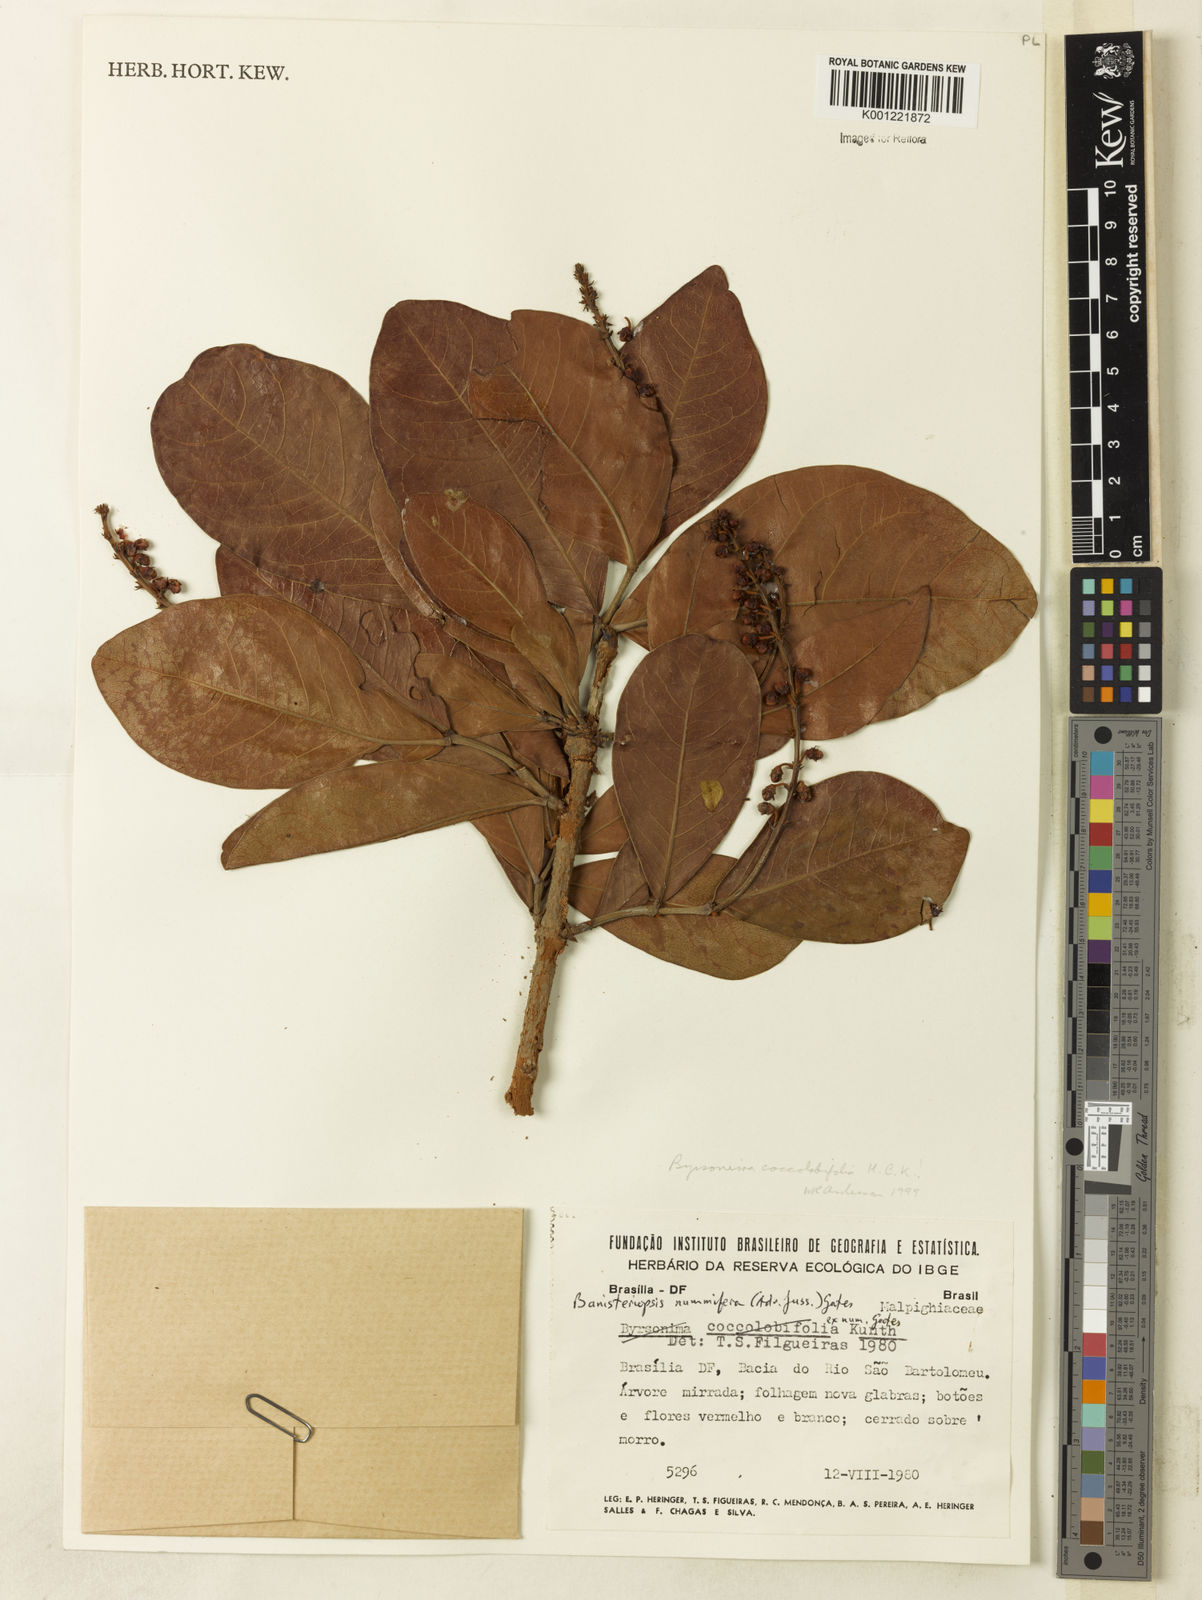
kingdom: Plantae
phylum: Tracheophyta
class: Magnoliopsida
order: Malpighiales
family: Malpighiaceae
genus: Byrsonima
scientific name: Byrsonima coccolobifolia
